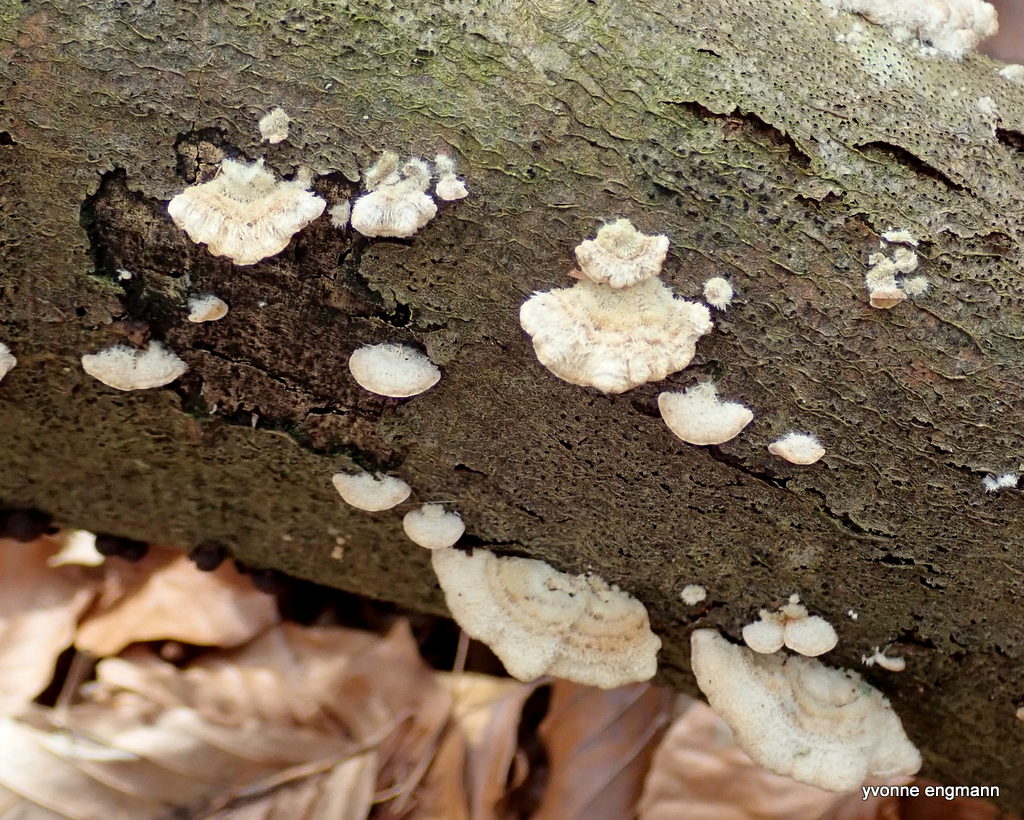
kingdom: Fungi
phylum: Basidiomycota
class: Agaricomycetes
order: Russulales
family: Stereaceae
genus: Stereum
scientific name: Stereum hirsutum
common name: håret lædersvamp
